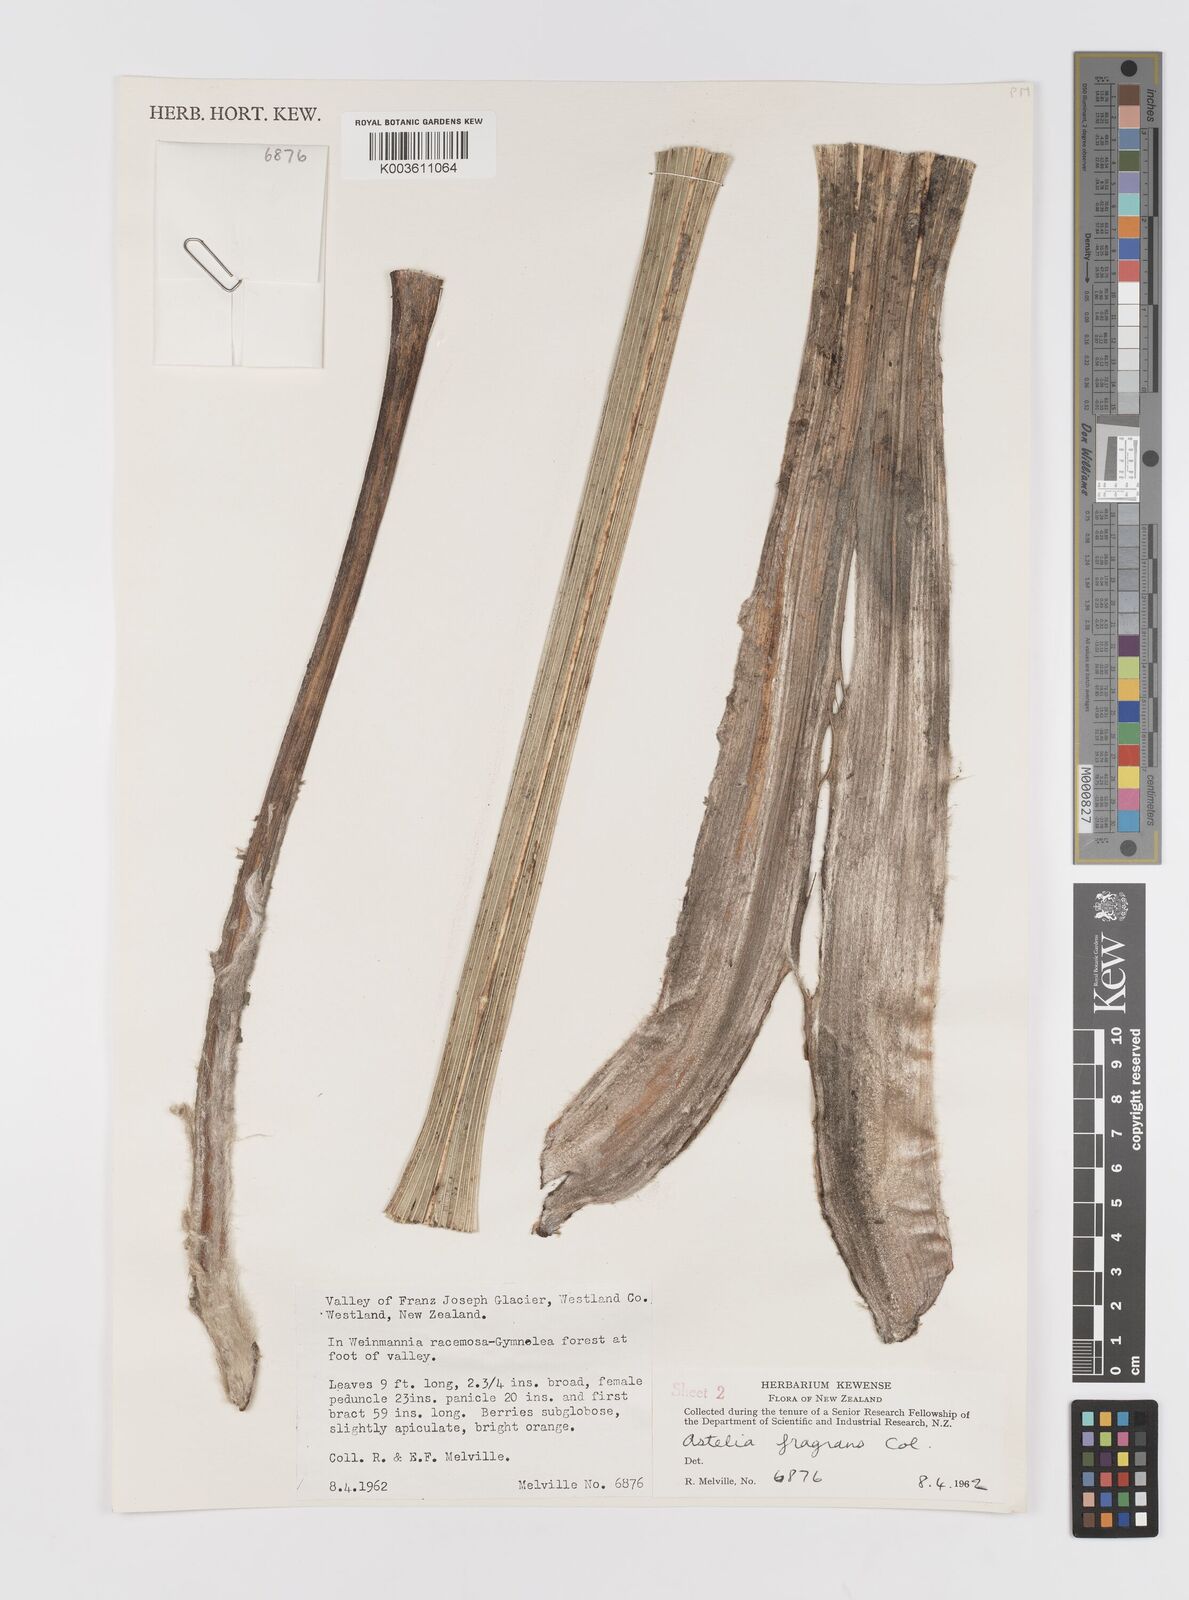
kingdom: Plantae
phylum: Tracheophyta
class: Liliopsida
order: Asparagales
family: Asteliaceae
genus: Astelia
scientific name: Astelia fragrans
